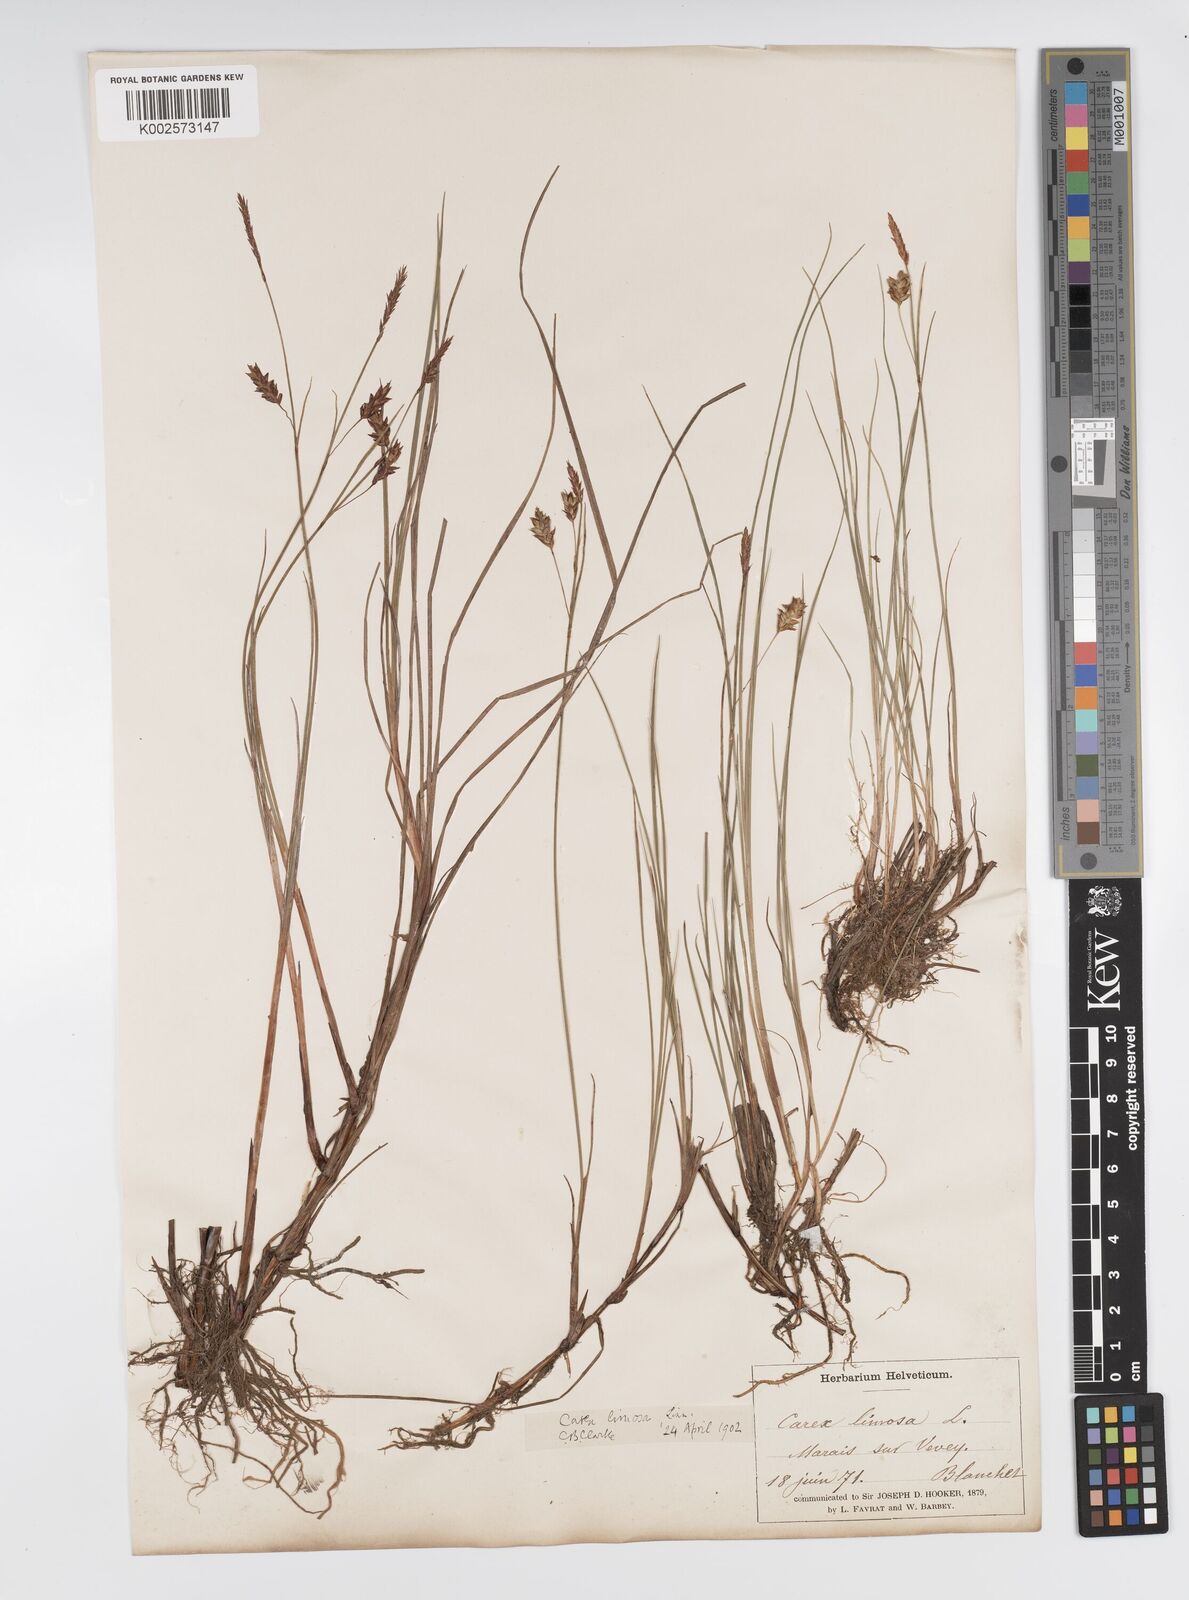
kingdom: Plantae
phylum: Tracheophyta
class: Liliopsida
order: Poales
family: Cyperaceae
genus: Carex
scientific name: Carex limosa
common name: Bog sedge
